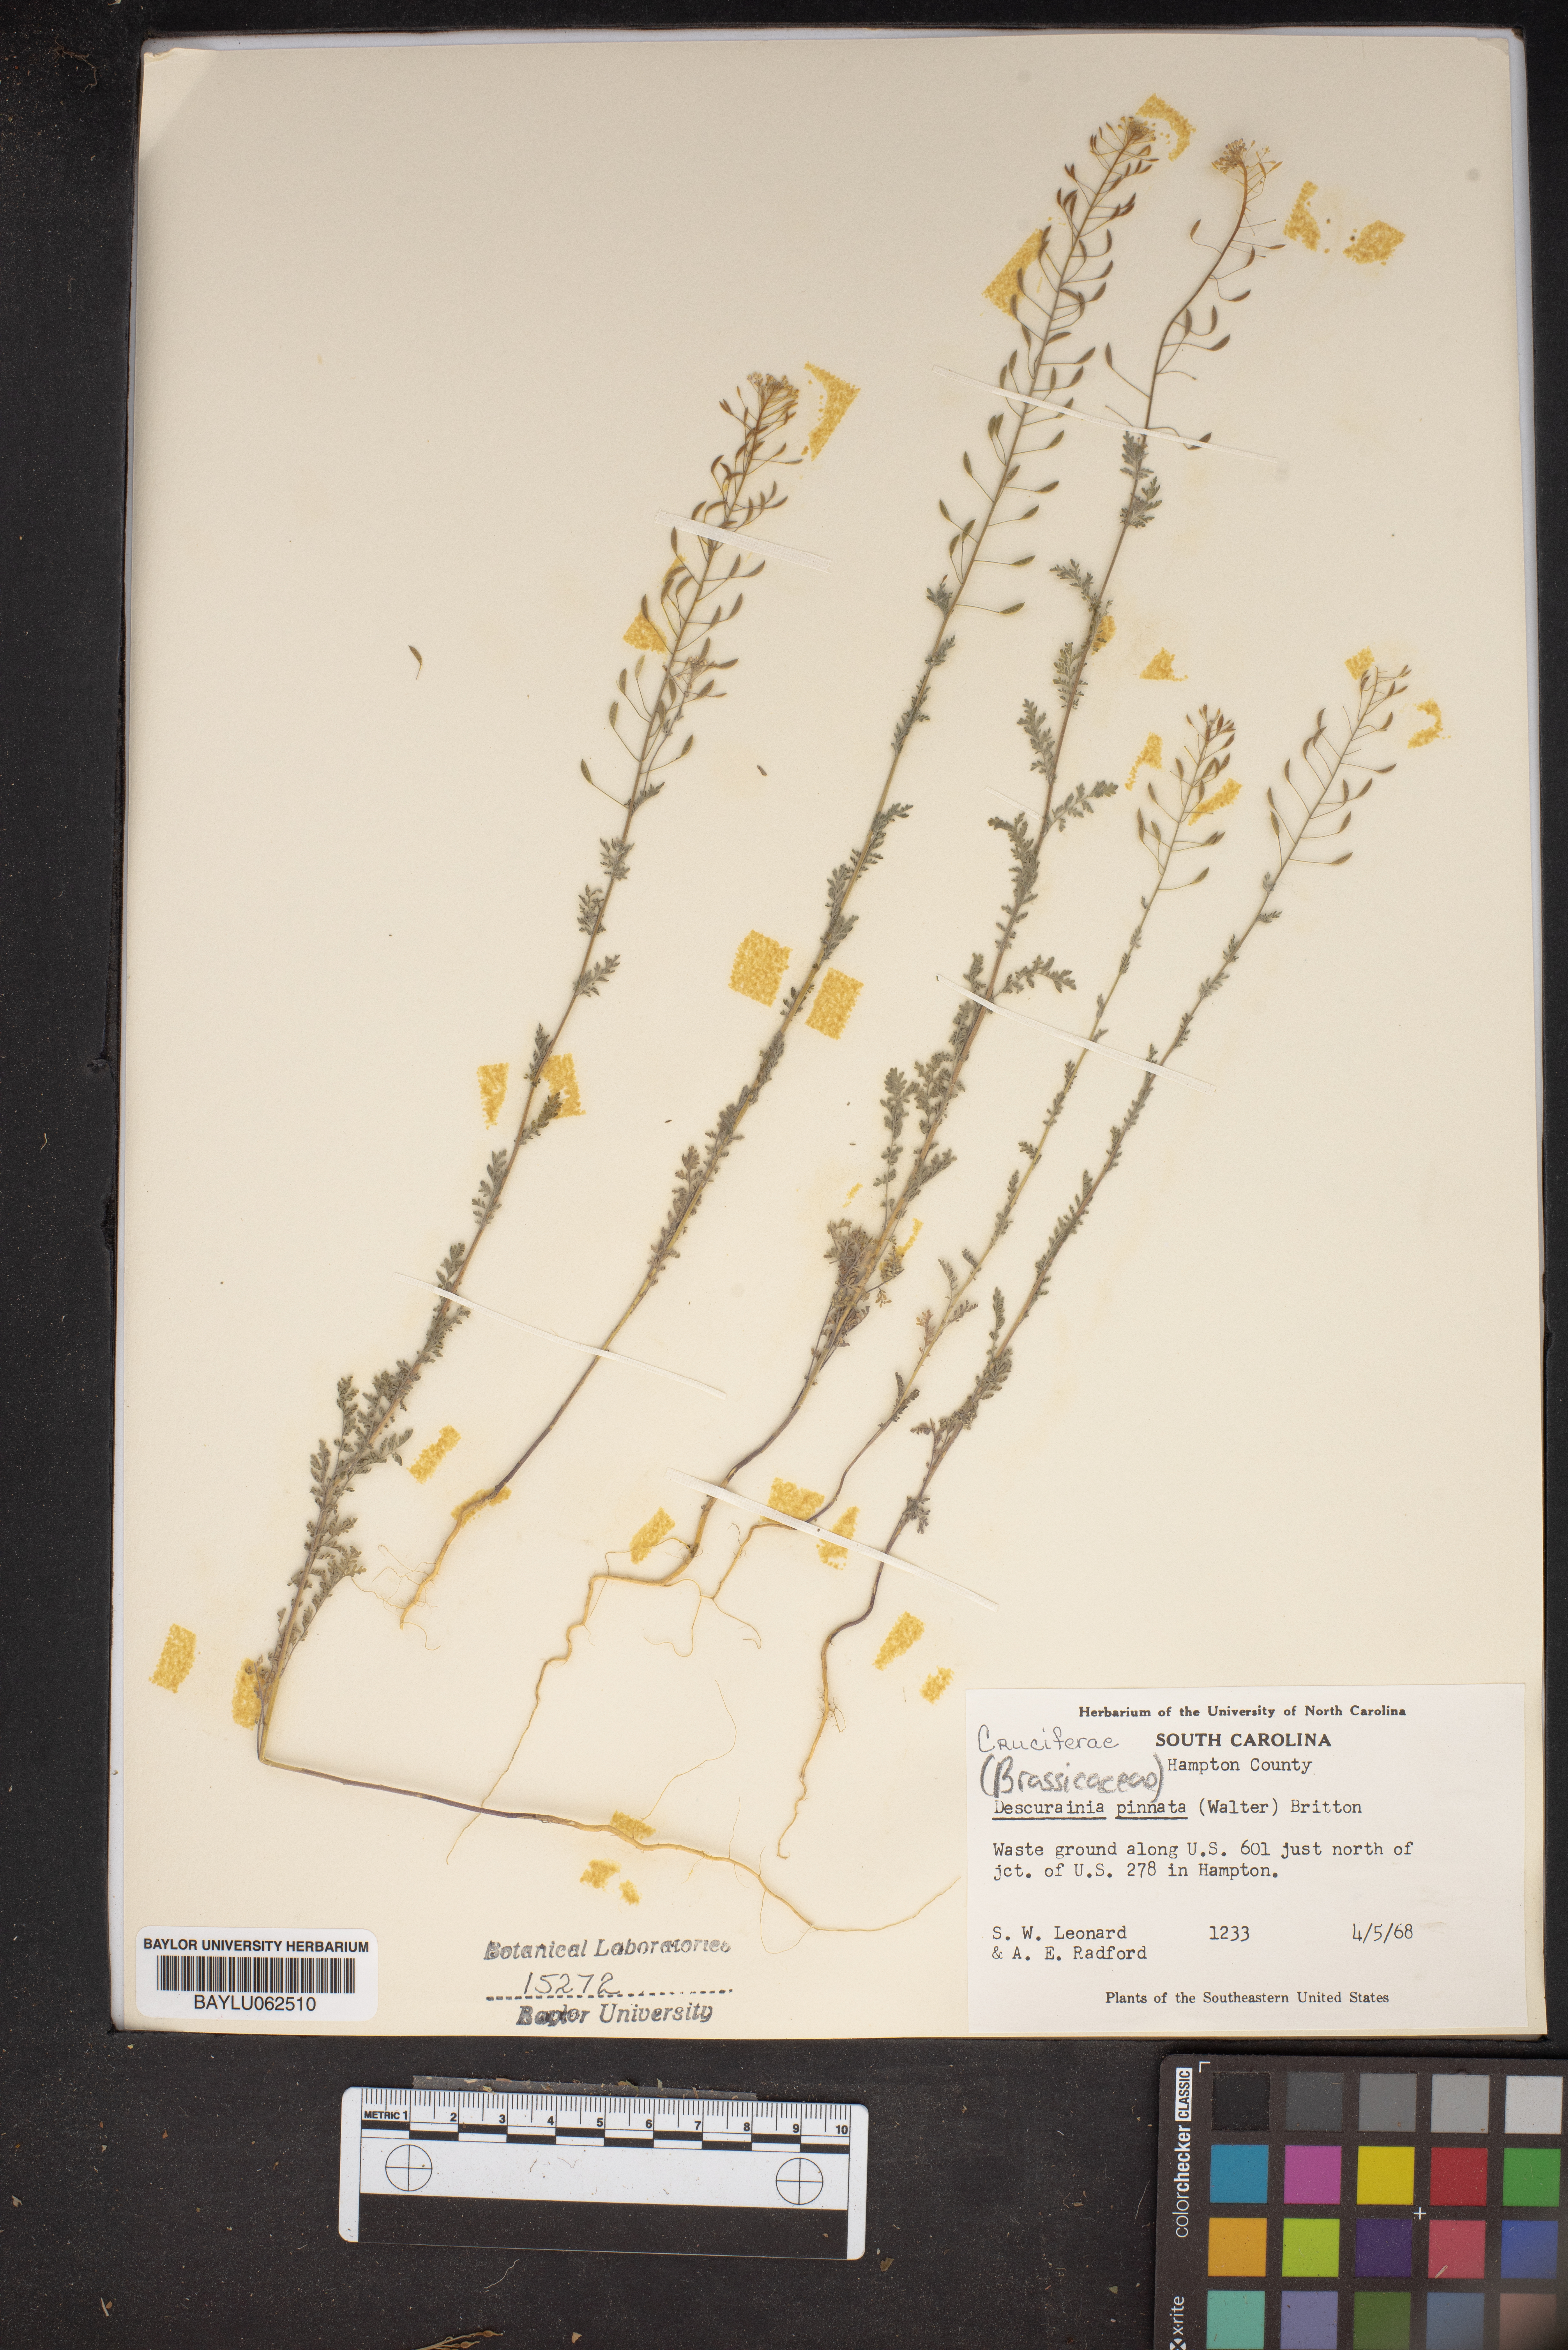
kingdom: Plantae
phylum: Tracheophyta
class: Magnoliopsida
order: Brassicales
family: Brassicaceae
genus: Descurainia
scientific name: Descurainia pinnata
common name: Western tansy mustard
